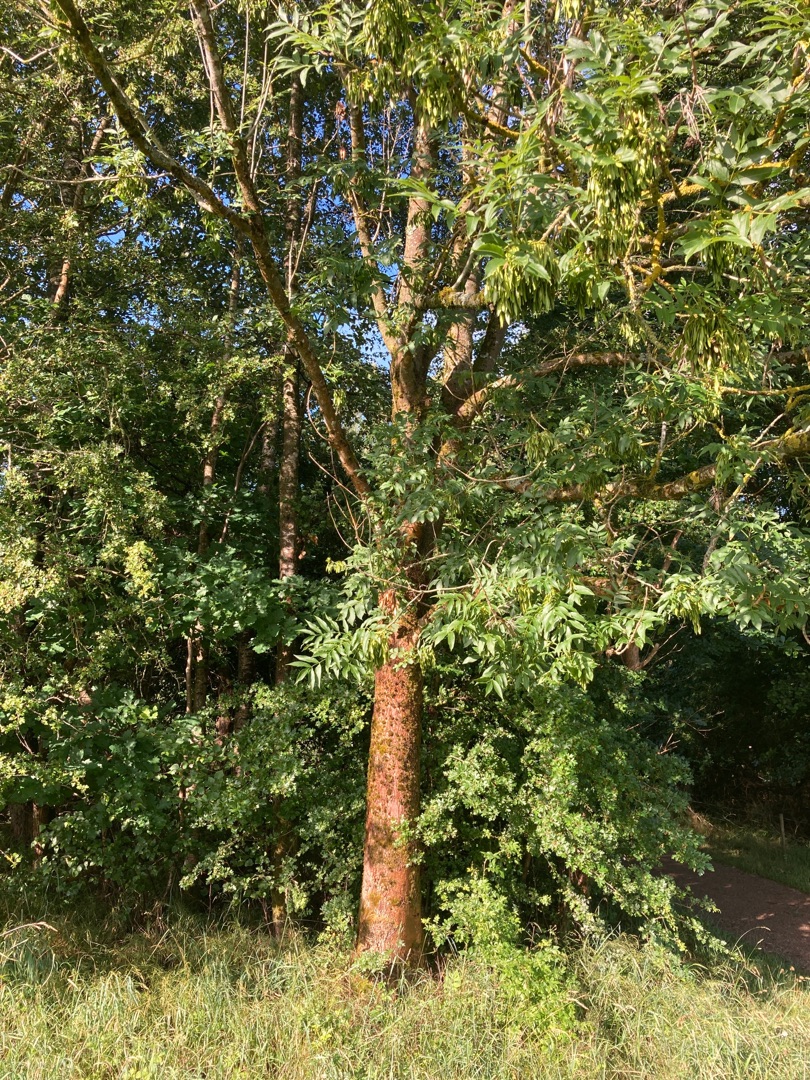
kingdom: Plantae
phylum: Tracheophyta
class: Magnoliopsida
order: Lamiales
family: Oleaceae
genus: Fraxinus
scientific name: Fraxinus excelsior
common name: Ask
